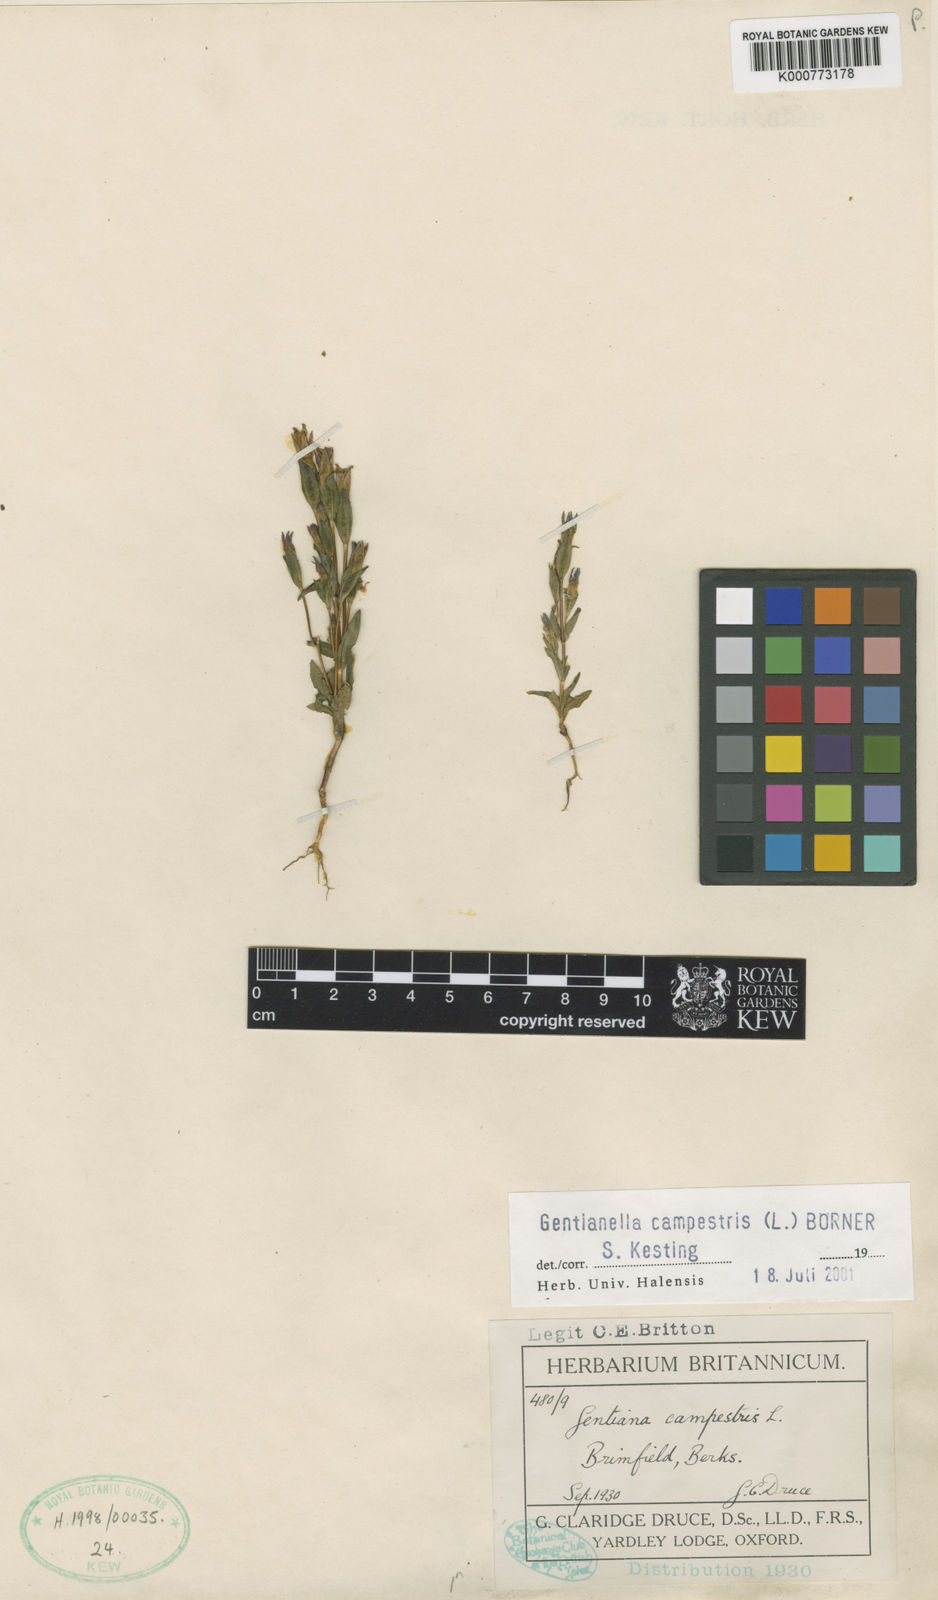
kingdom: Plantae
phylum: Tracheophyta
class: Magnoliopsida
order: Gentianales
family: Gentianaceae
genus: Gentianella
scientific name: Gentianella
